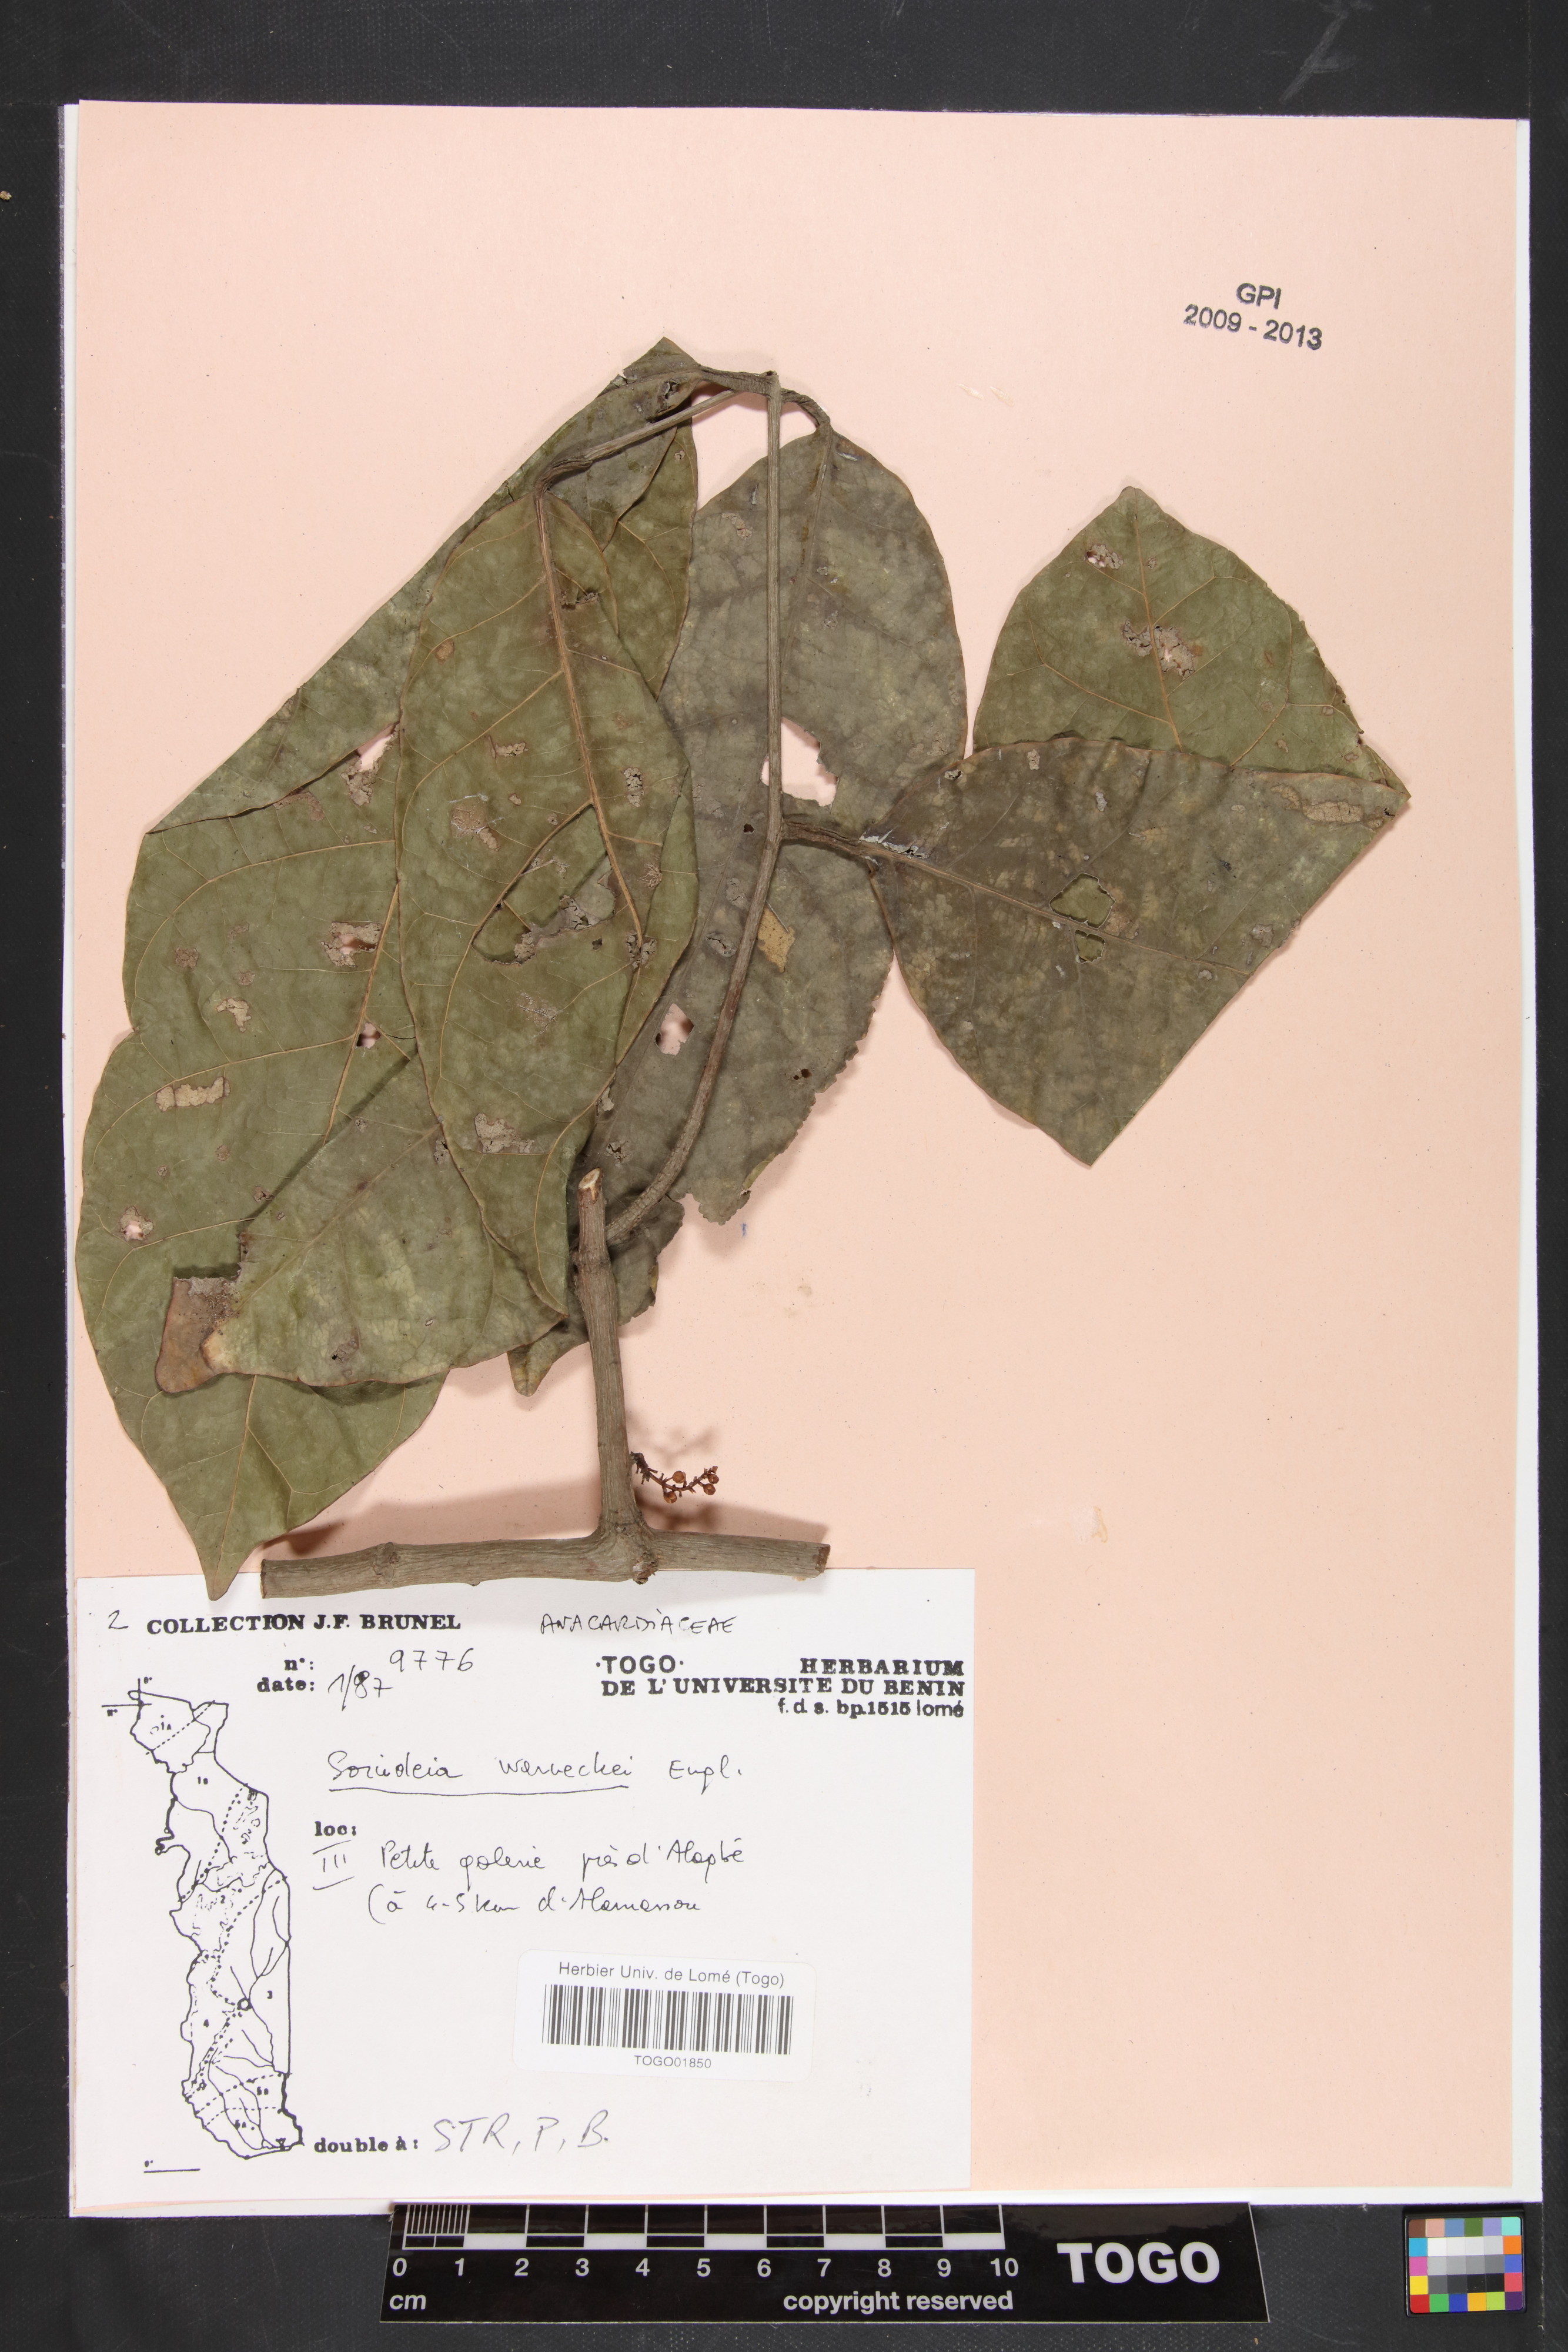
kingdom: Plantae
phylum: Tracheophyta
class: Magnoliopsida
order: Sapindales
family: Anacardiaceae
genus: Sorindeia
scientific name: Sorindeia grandifolia
